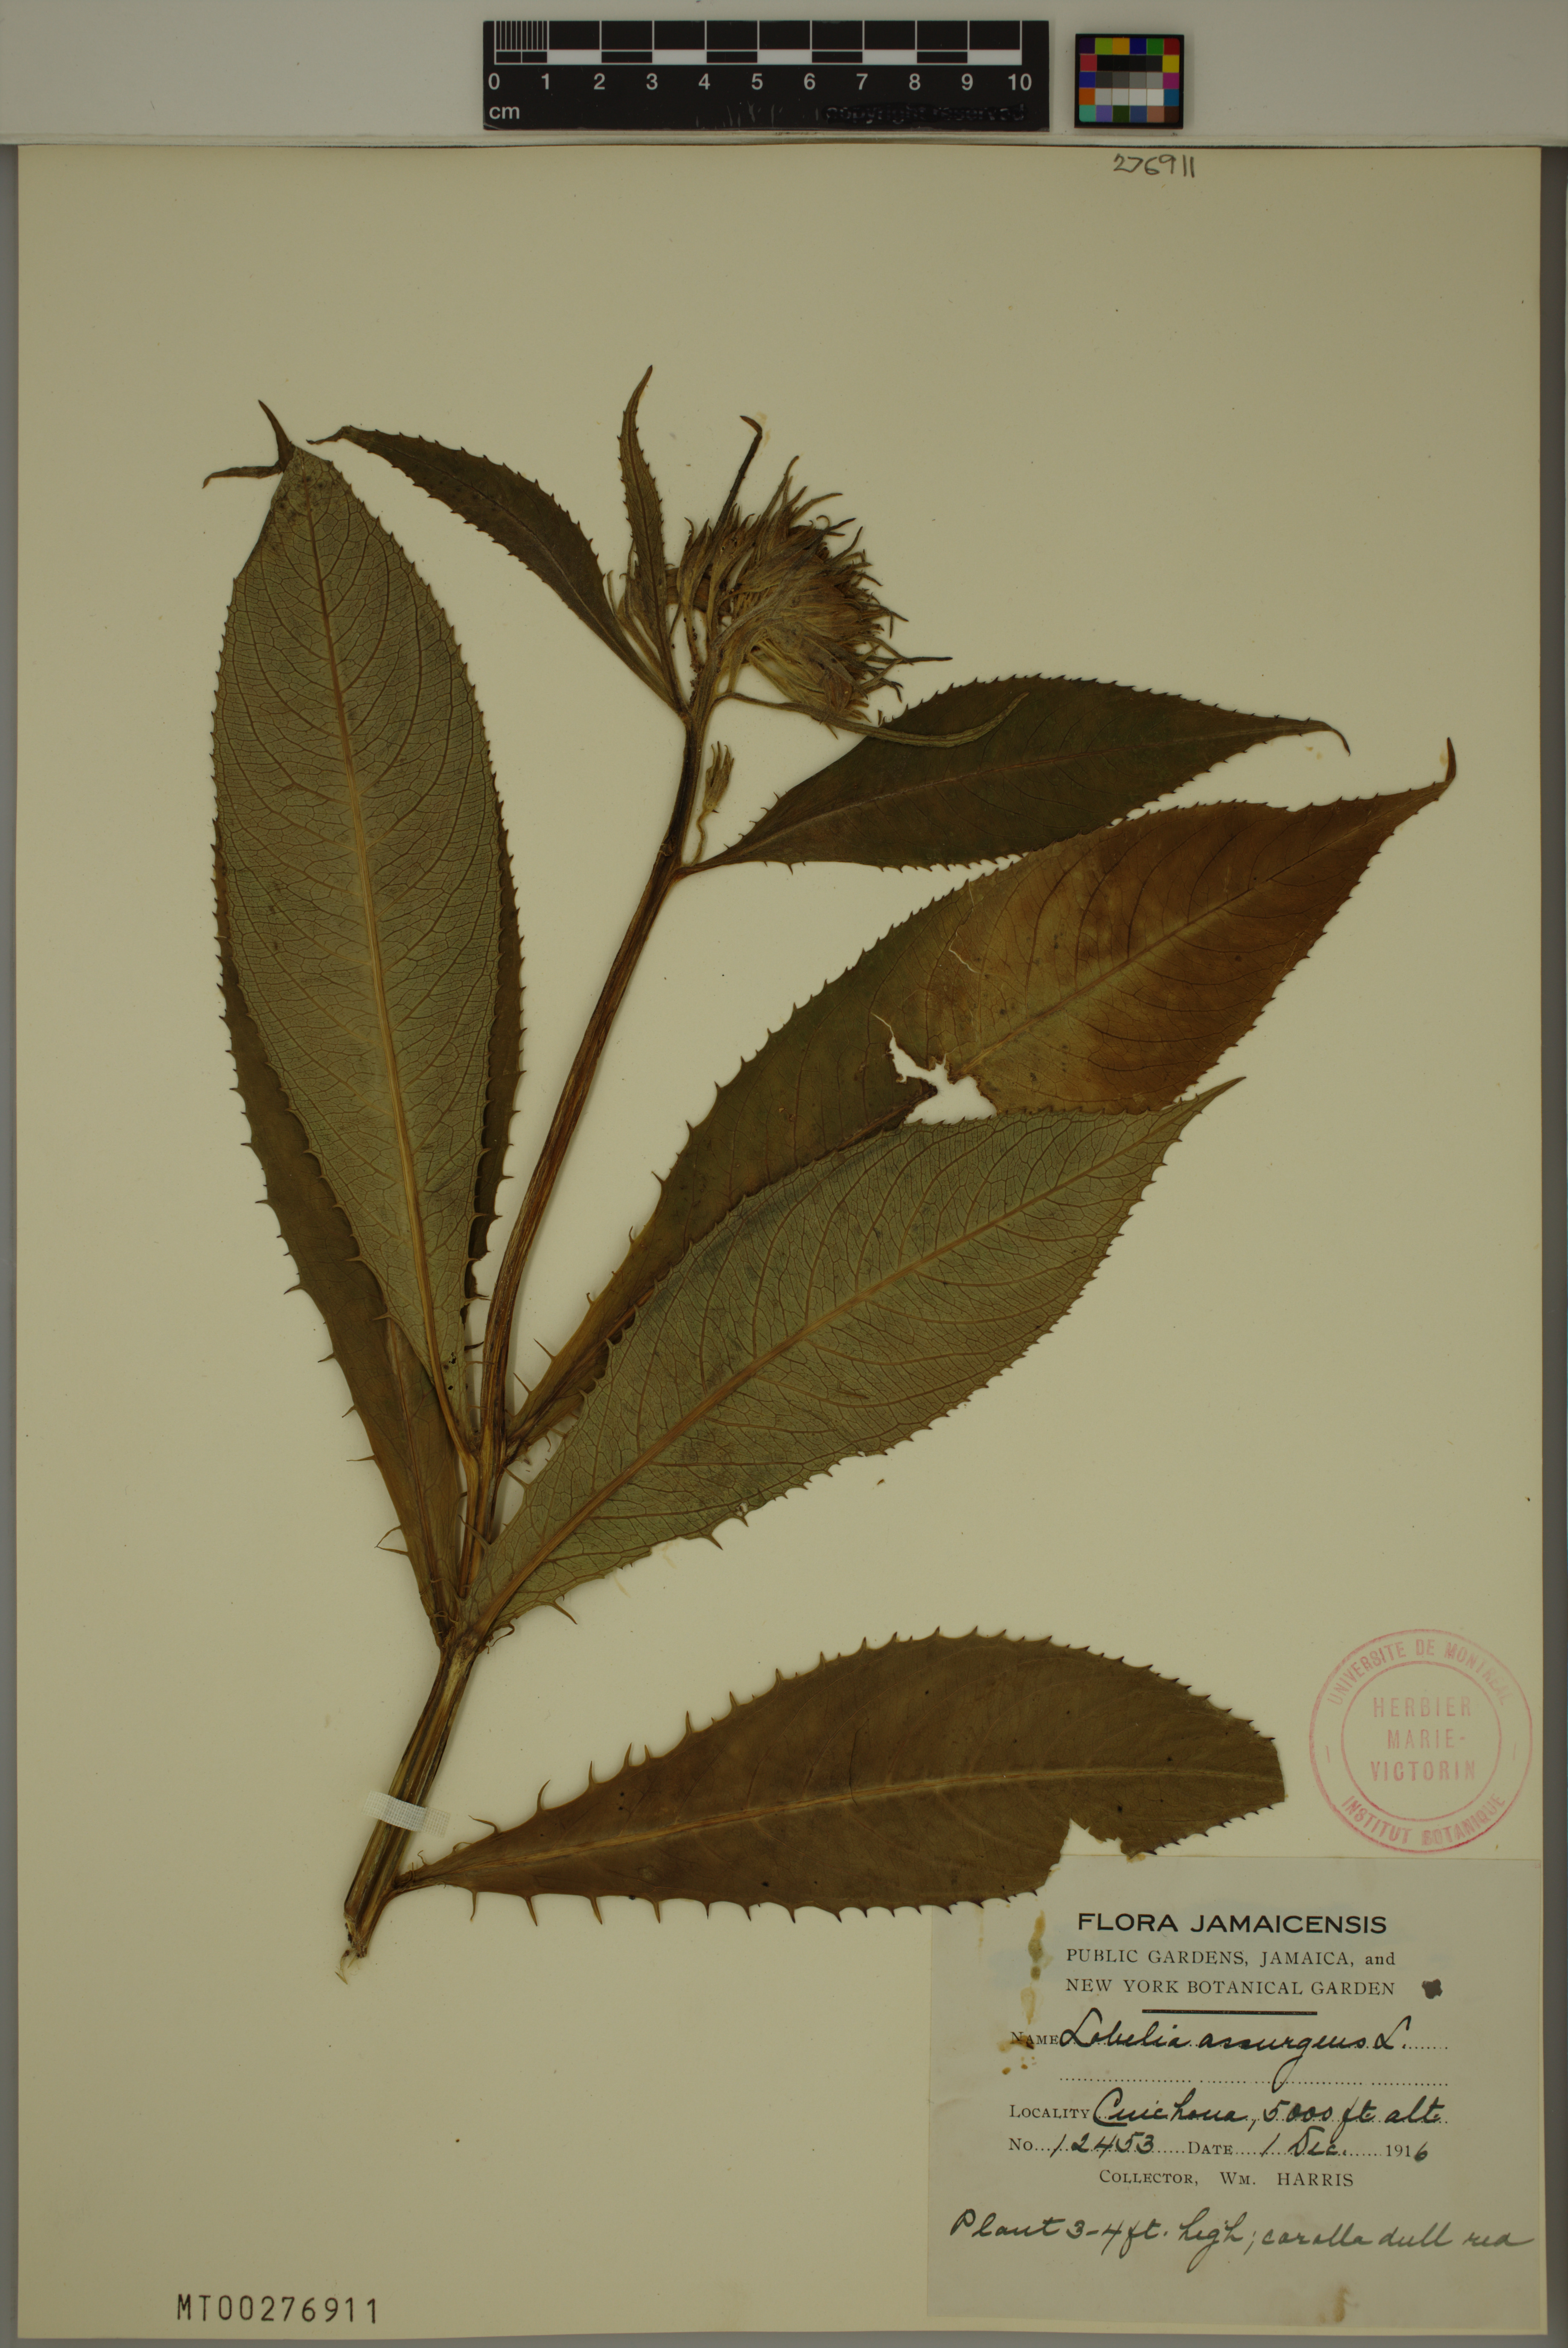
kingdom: Plantae
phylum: Tracheophyta
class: Magnoliopsida
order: Asterales
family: Campanulaceae
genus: Lobelia
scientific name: Lobelia assurgens
